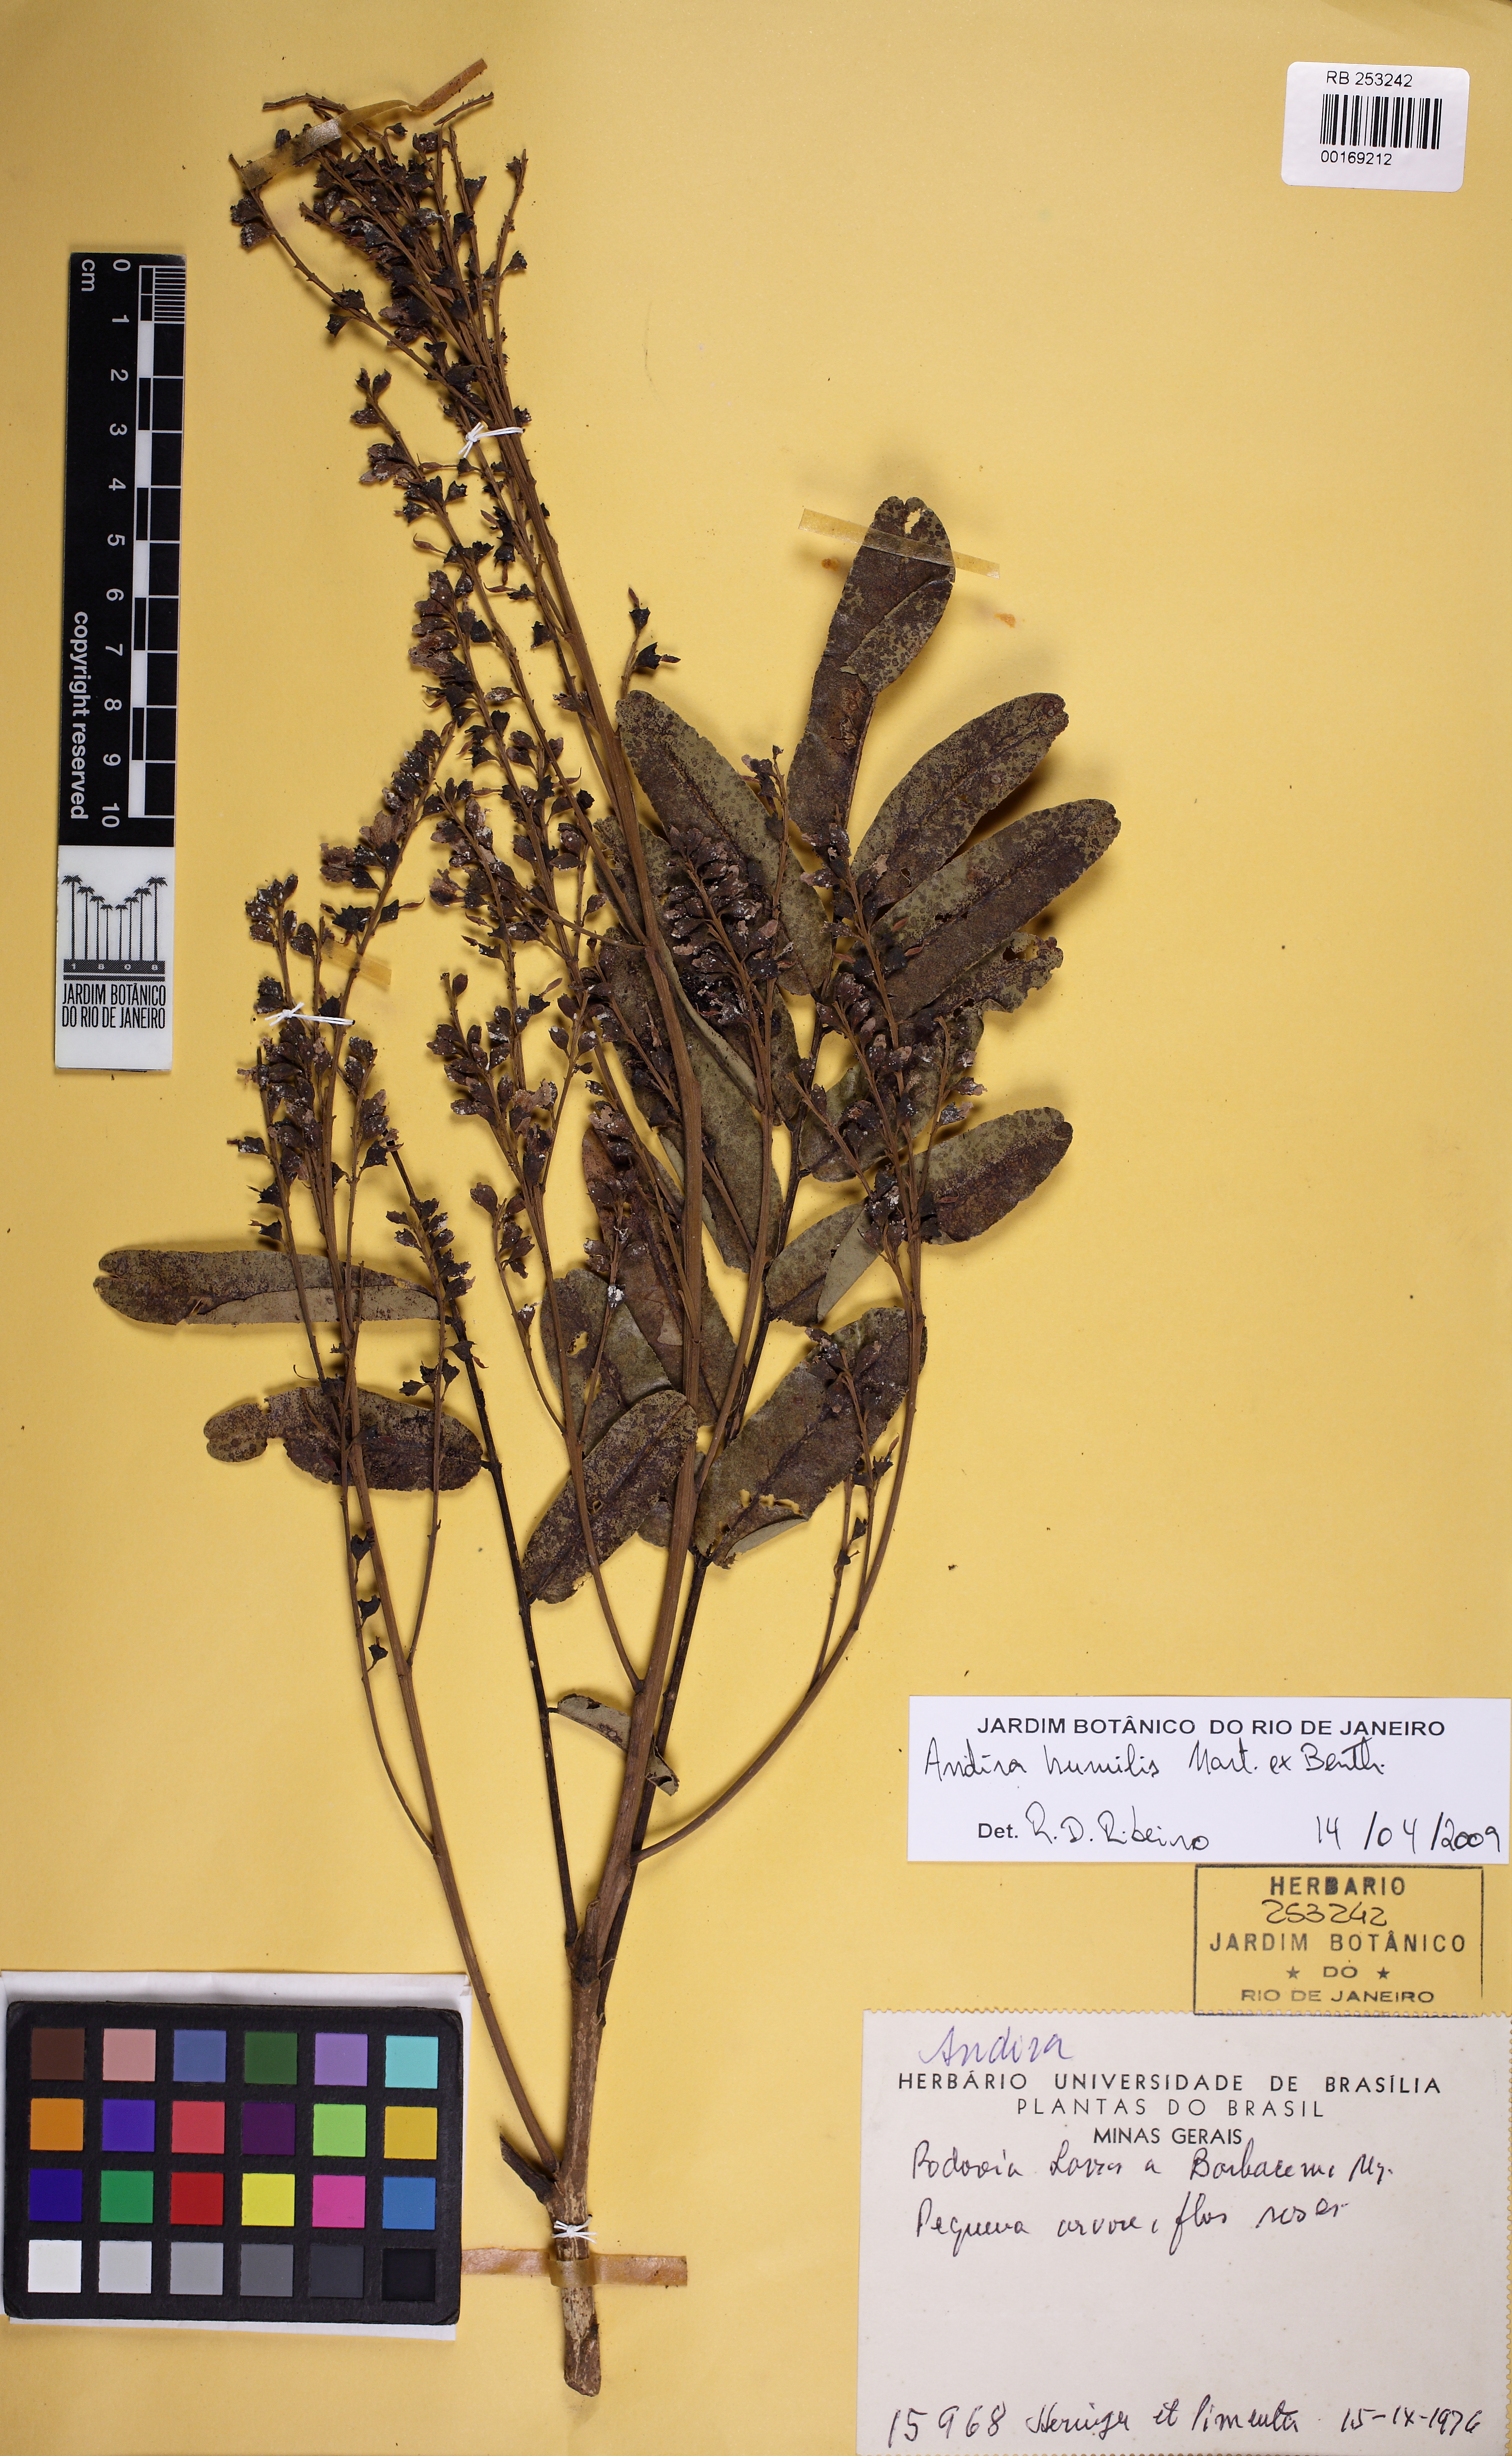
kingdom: Plantae
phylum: Tracheophyta
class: Magnoliopsida
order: Fabales
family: Fabaceae
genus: Andira
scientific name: Andira humilis
